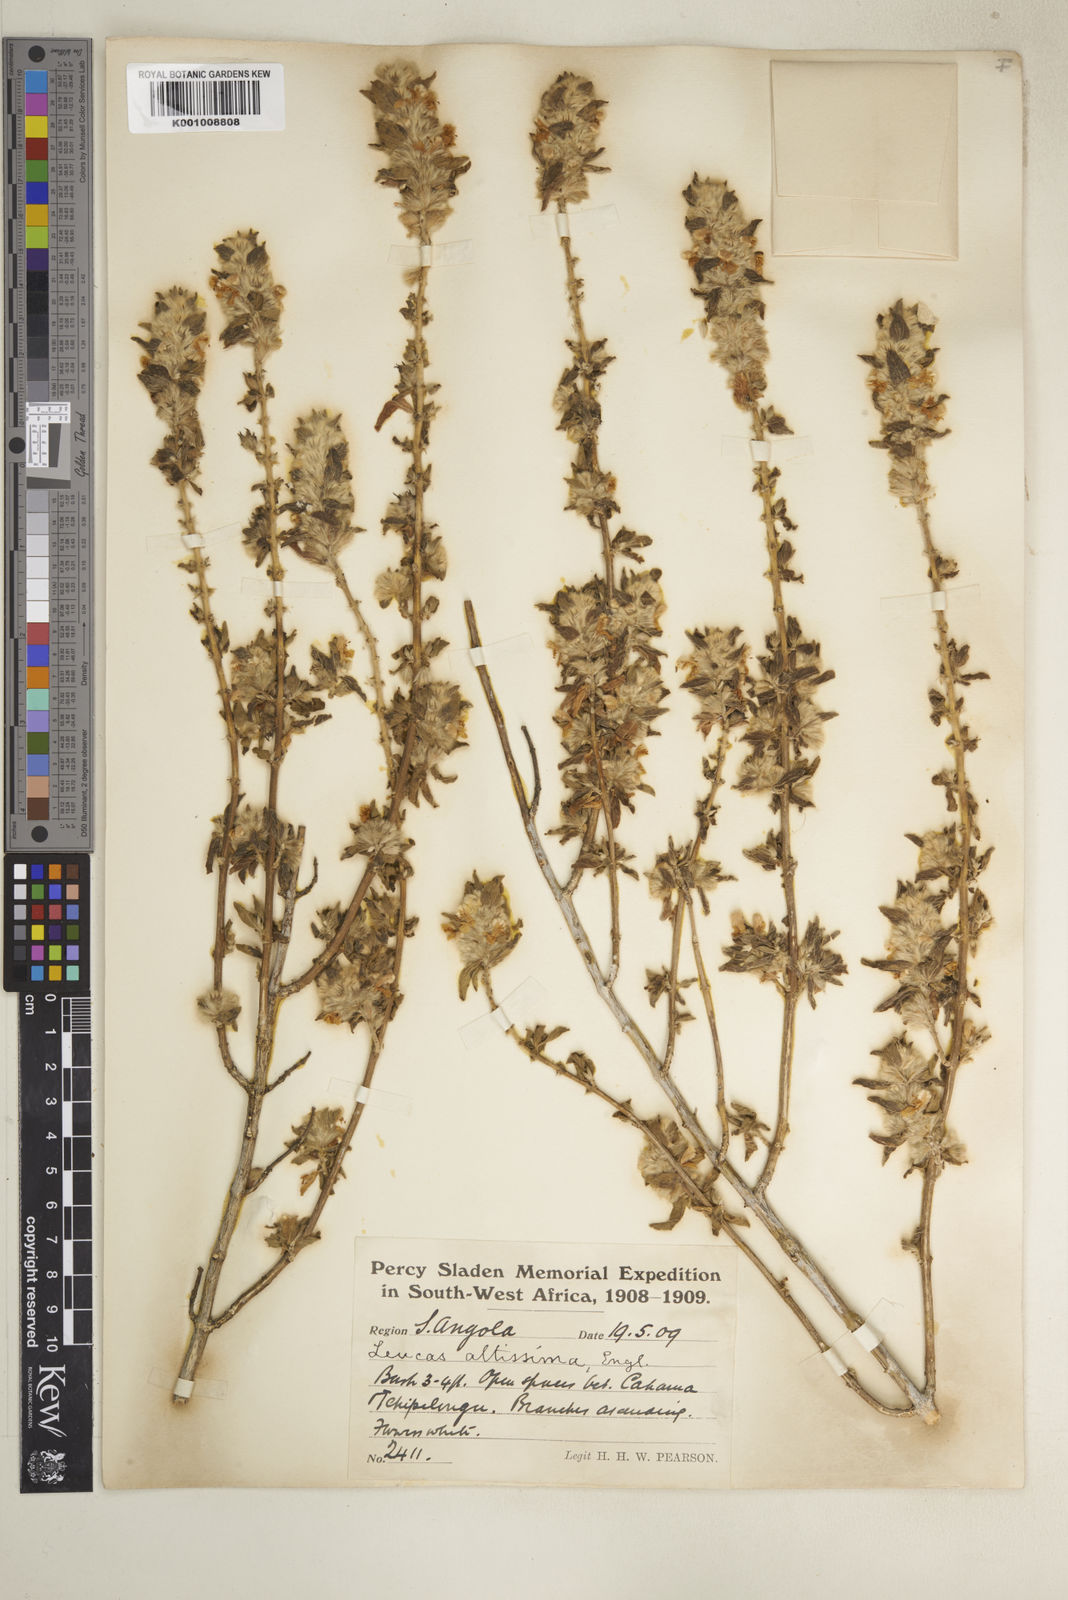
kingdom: Plantae
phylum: Tracheophyta
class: Magnoliopsida
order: Lamiales
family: Lamiaceae
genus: Leucas
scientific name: Leucas pechuelii
